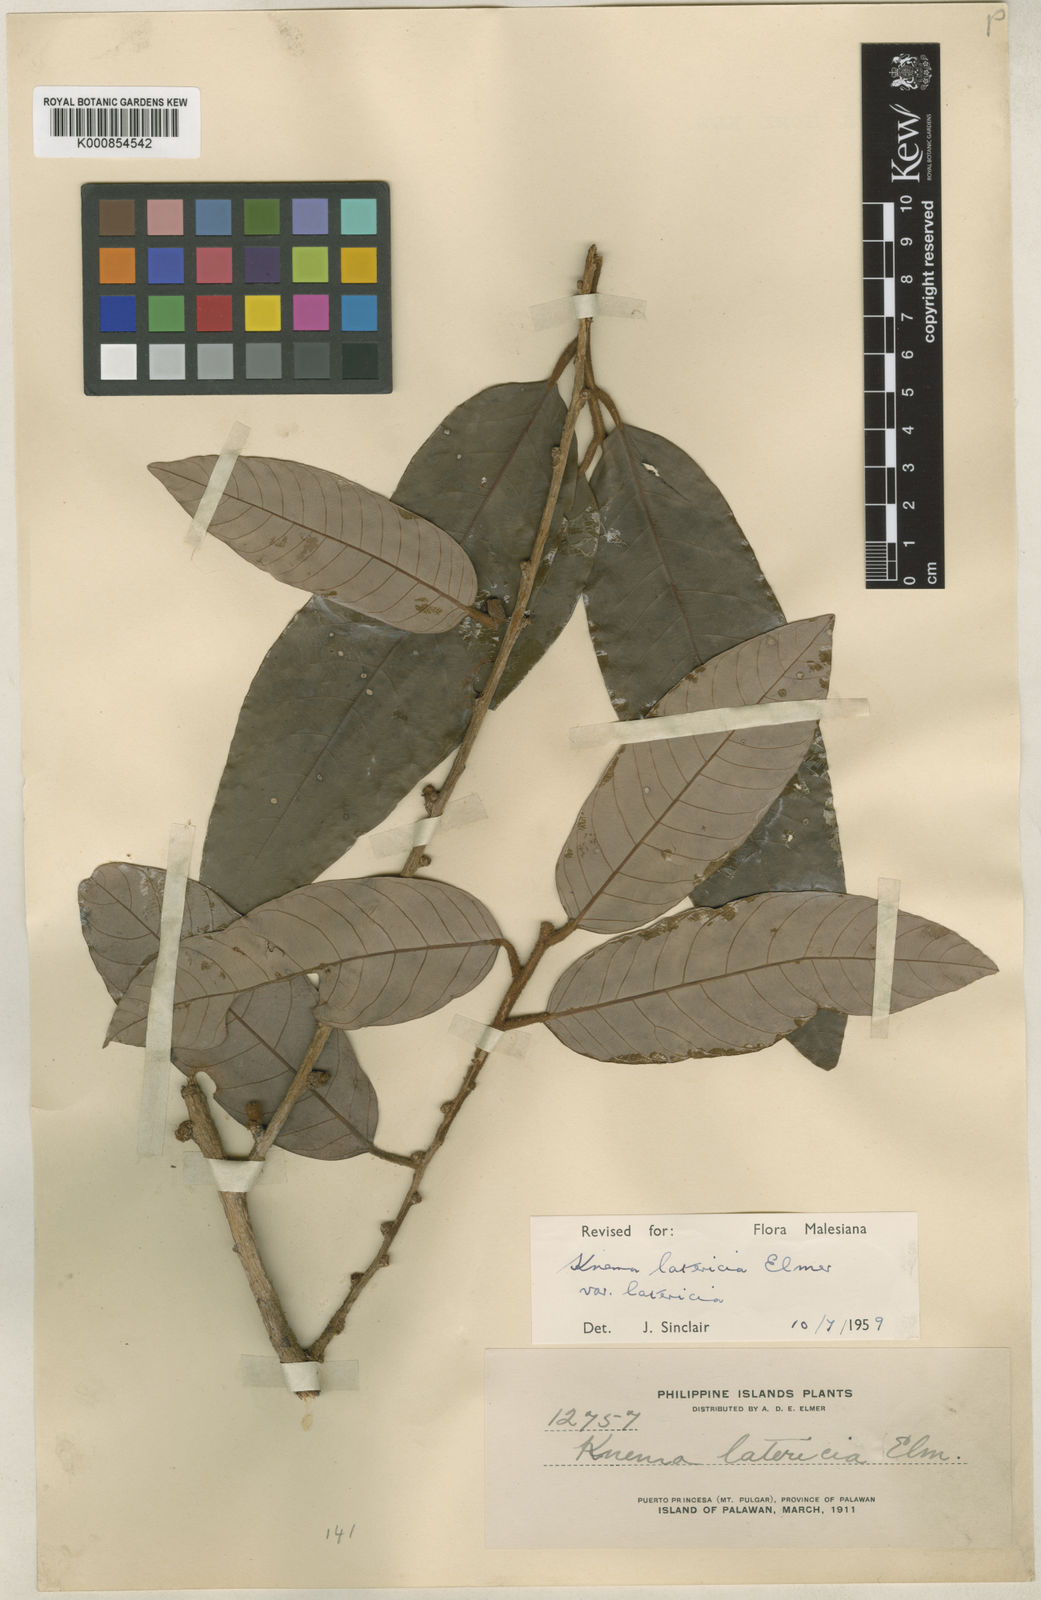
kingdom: Plantae
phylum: Tracheophyta
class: Magnoliopsida
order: Magnoliales
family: Myristicaceae
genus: Knema
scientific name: Knema latericia
